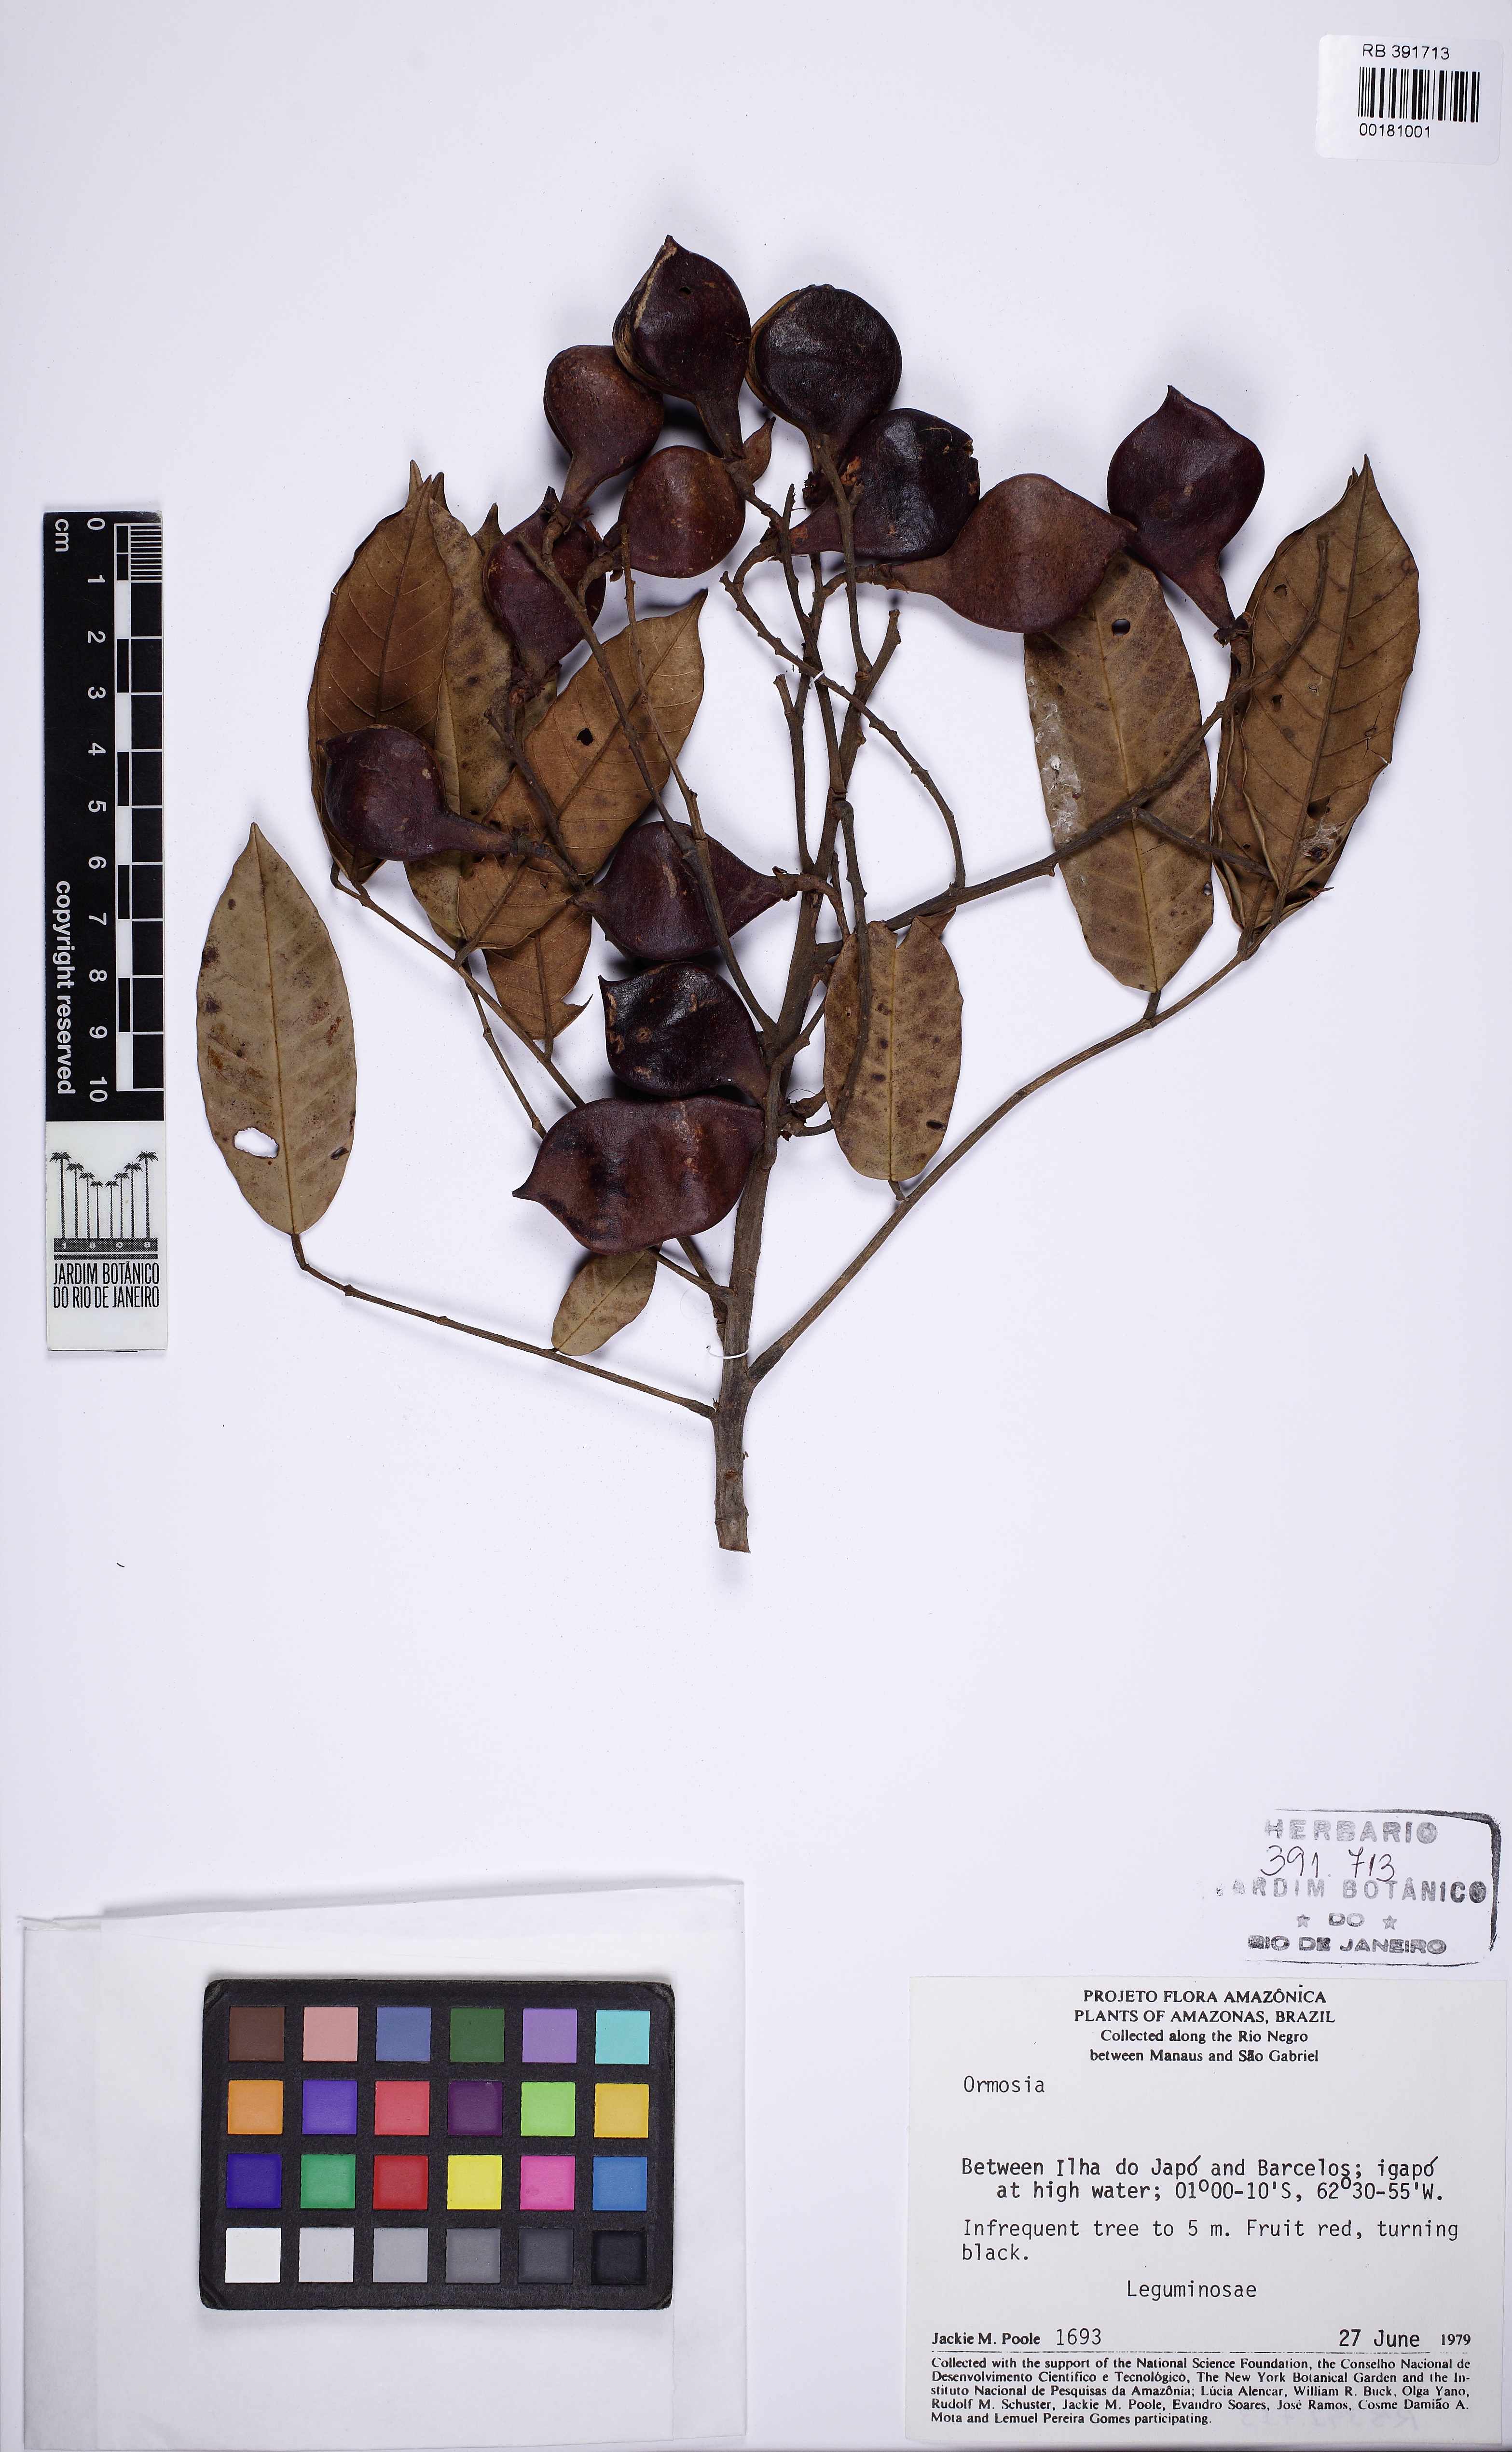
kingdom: Plantae
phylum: Tracheophyta
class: Magnoliopsida
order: Fabales
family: Fabaceae
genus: Ormosia
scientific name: Ormosia
